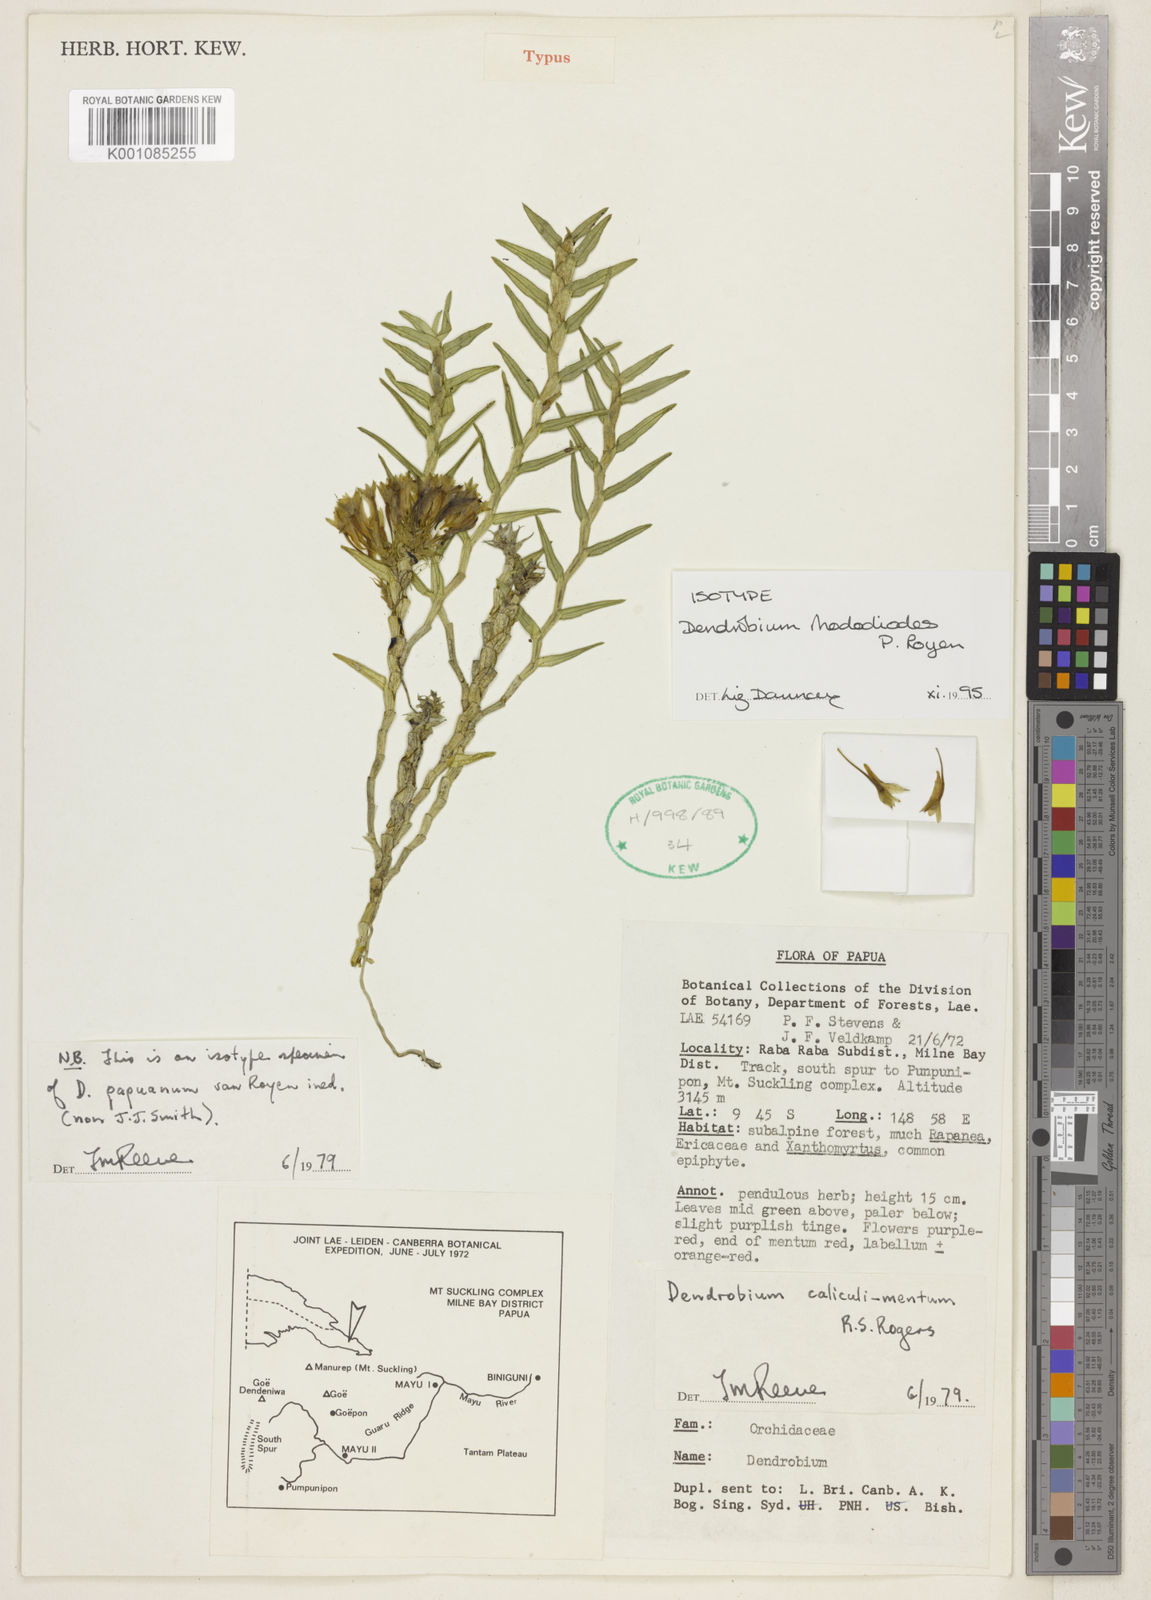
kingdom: Plantae
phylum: Tracheophyta
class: Liliopsida
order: Asparagales
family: Orchidaceae
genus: Dendrobium
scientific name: Dendrobium caliculi-mentum
